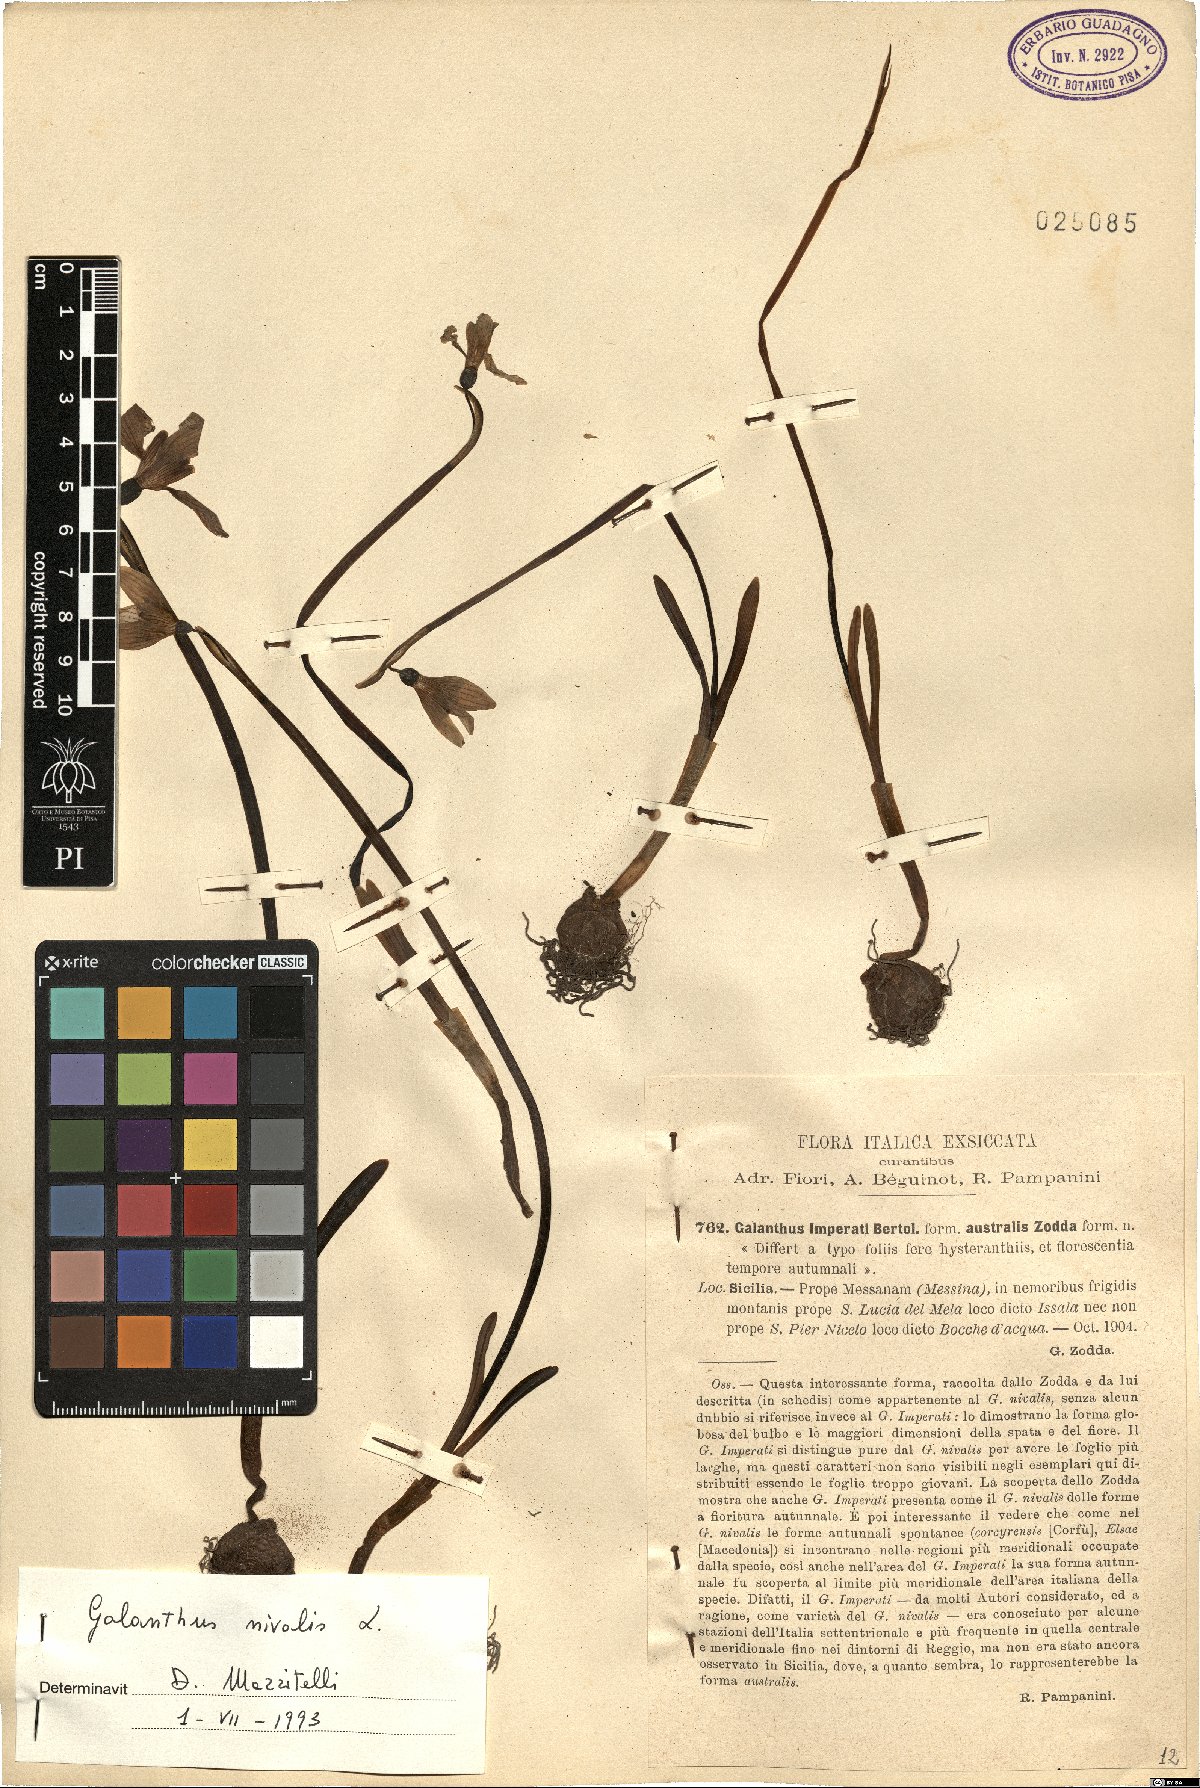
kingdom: Plantae
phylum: Tracheophyta
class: Liliopsida
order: Asparagales
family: Amaryllidaceae
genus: Galanthus
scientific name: Galanthus nivalis
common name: Snowdrop
